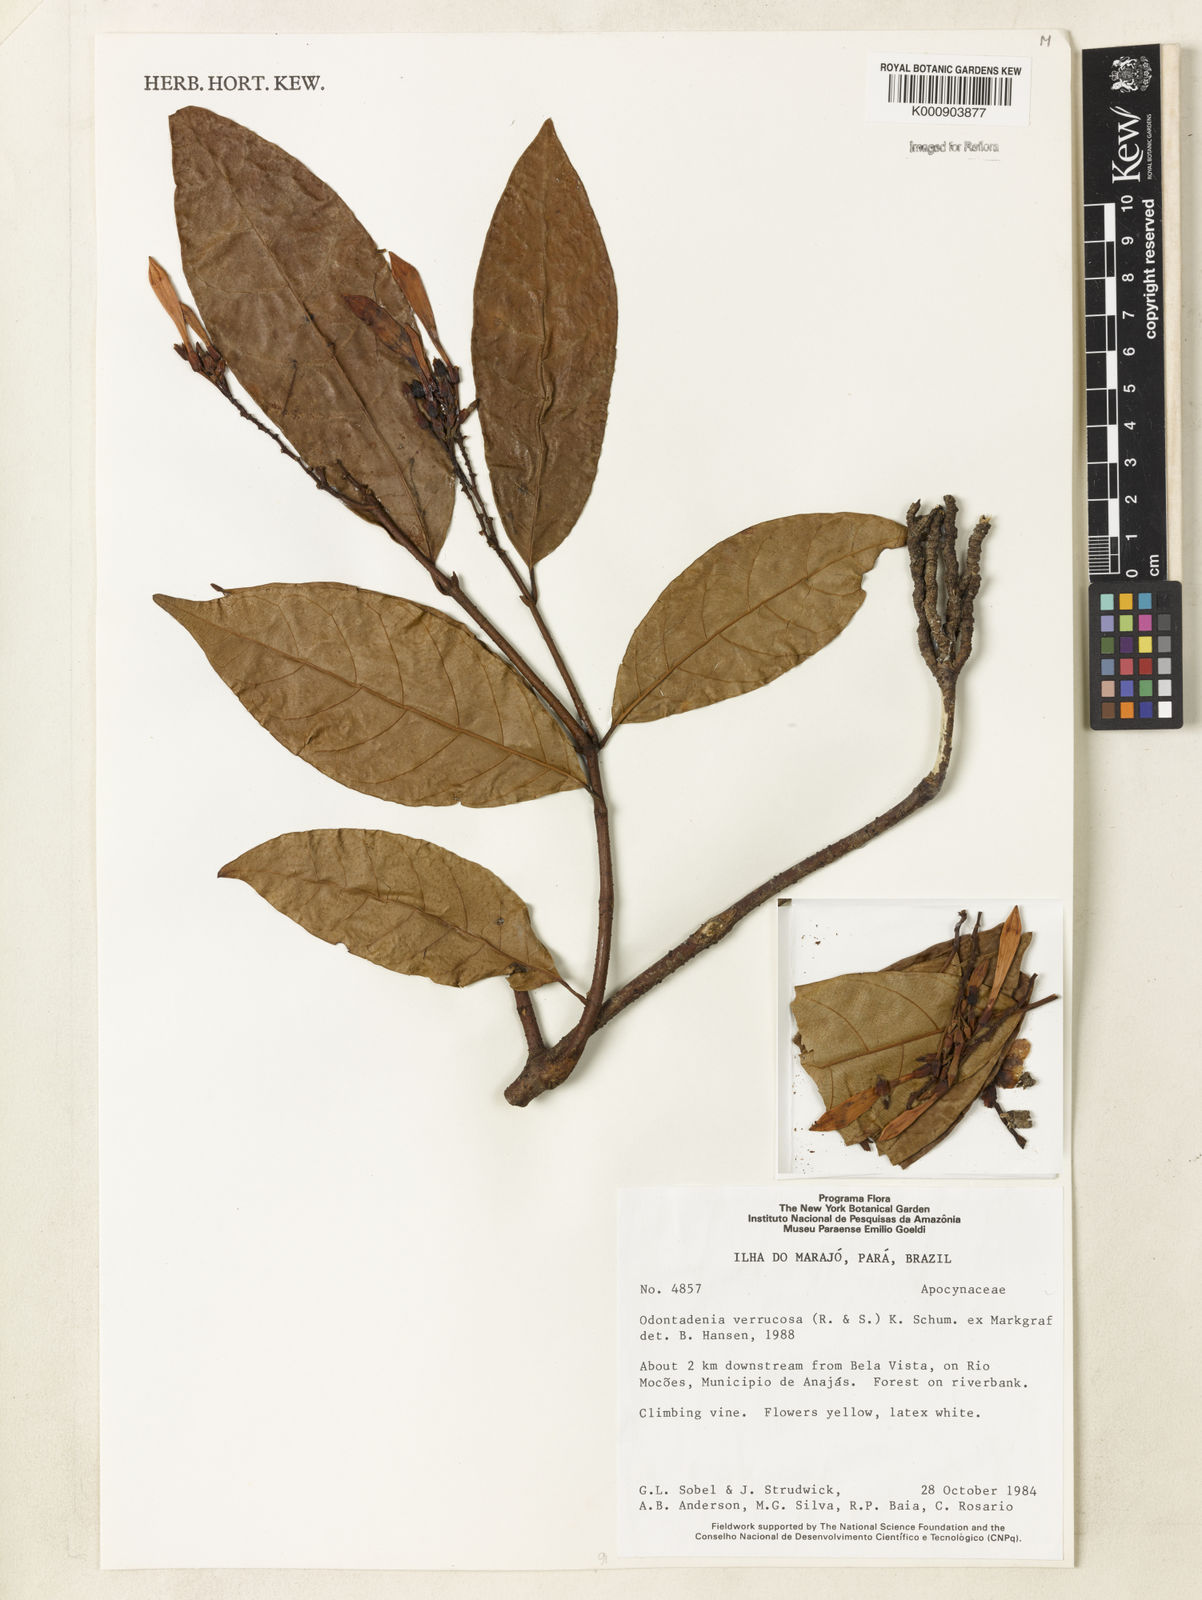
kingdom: Plantae
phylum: Tracheophyta
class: Magnoliopsida
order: Gentianales
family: Apocynaceae
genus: Odontadenia
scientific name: Odontadenia verrucosa
